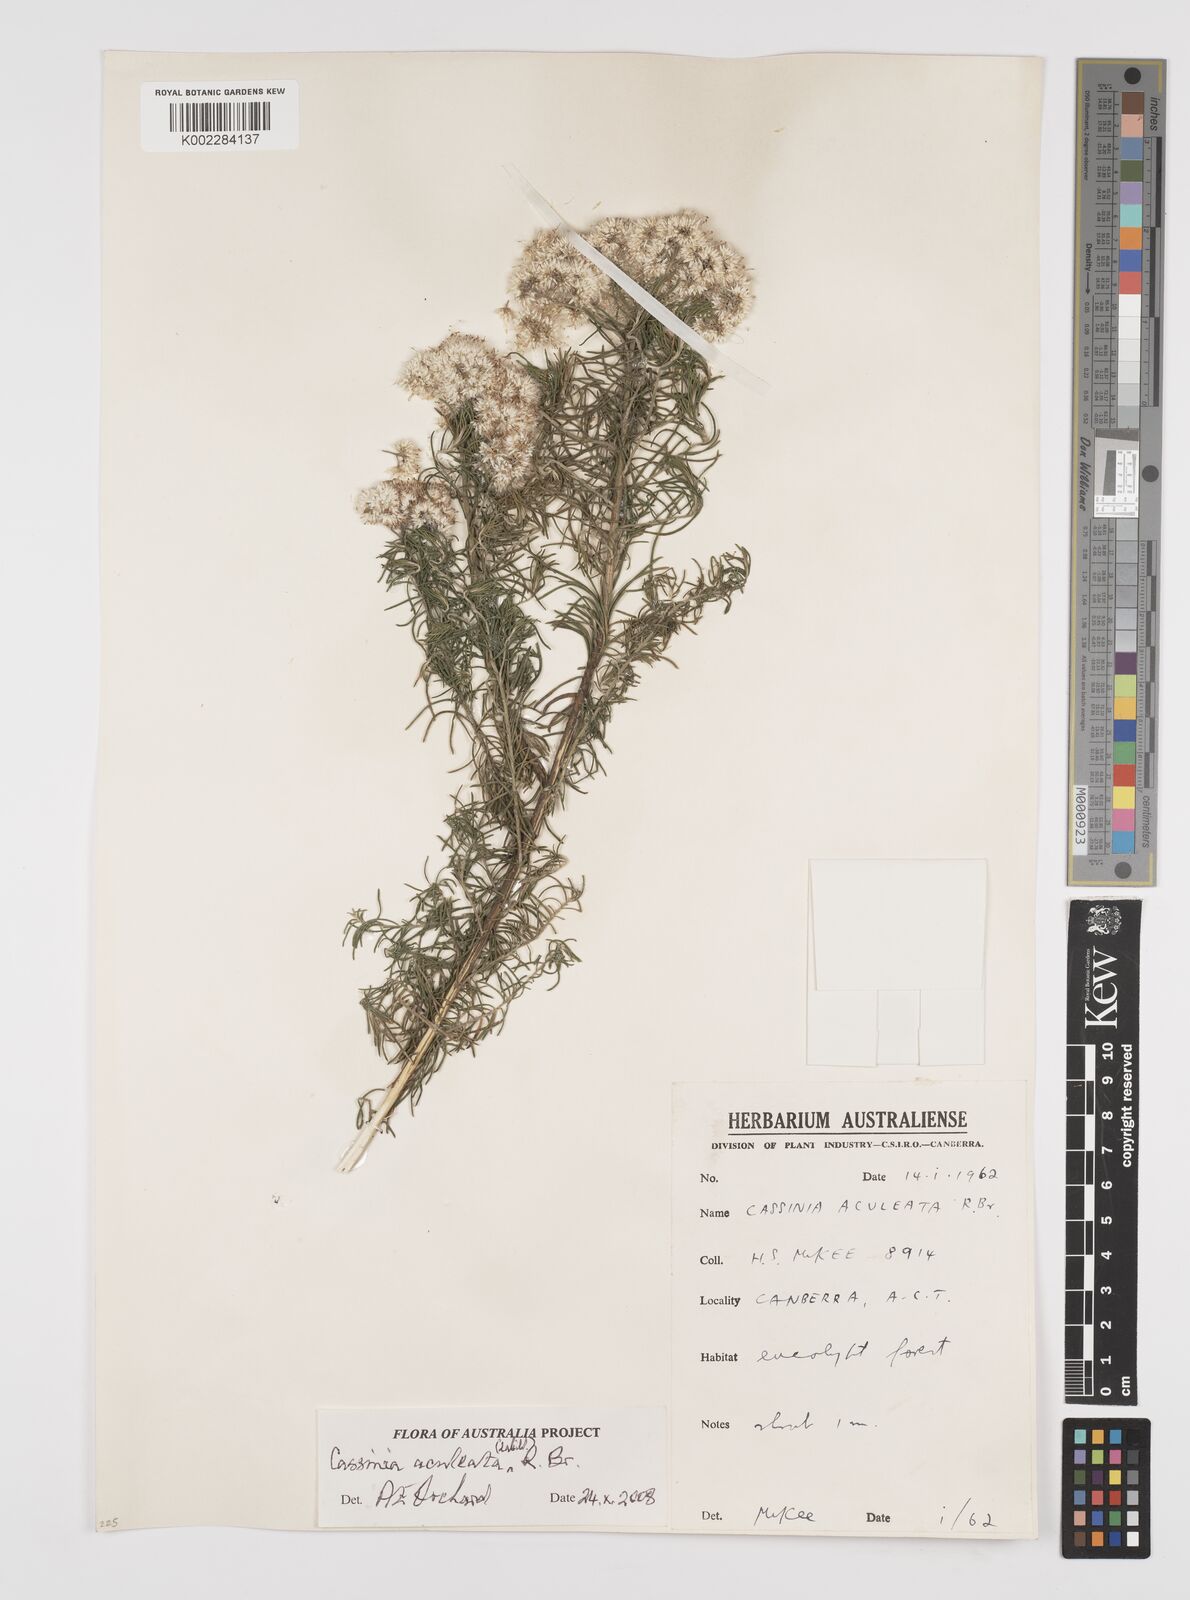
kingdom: Plantae
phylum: Tracheophyta
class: Magnoliopsida
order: Asterales
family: Asteraceae
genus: Cassinia
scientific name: Cassinia aculeata
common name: Australian tauhinu
